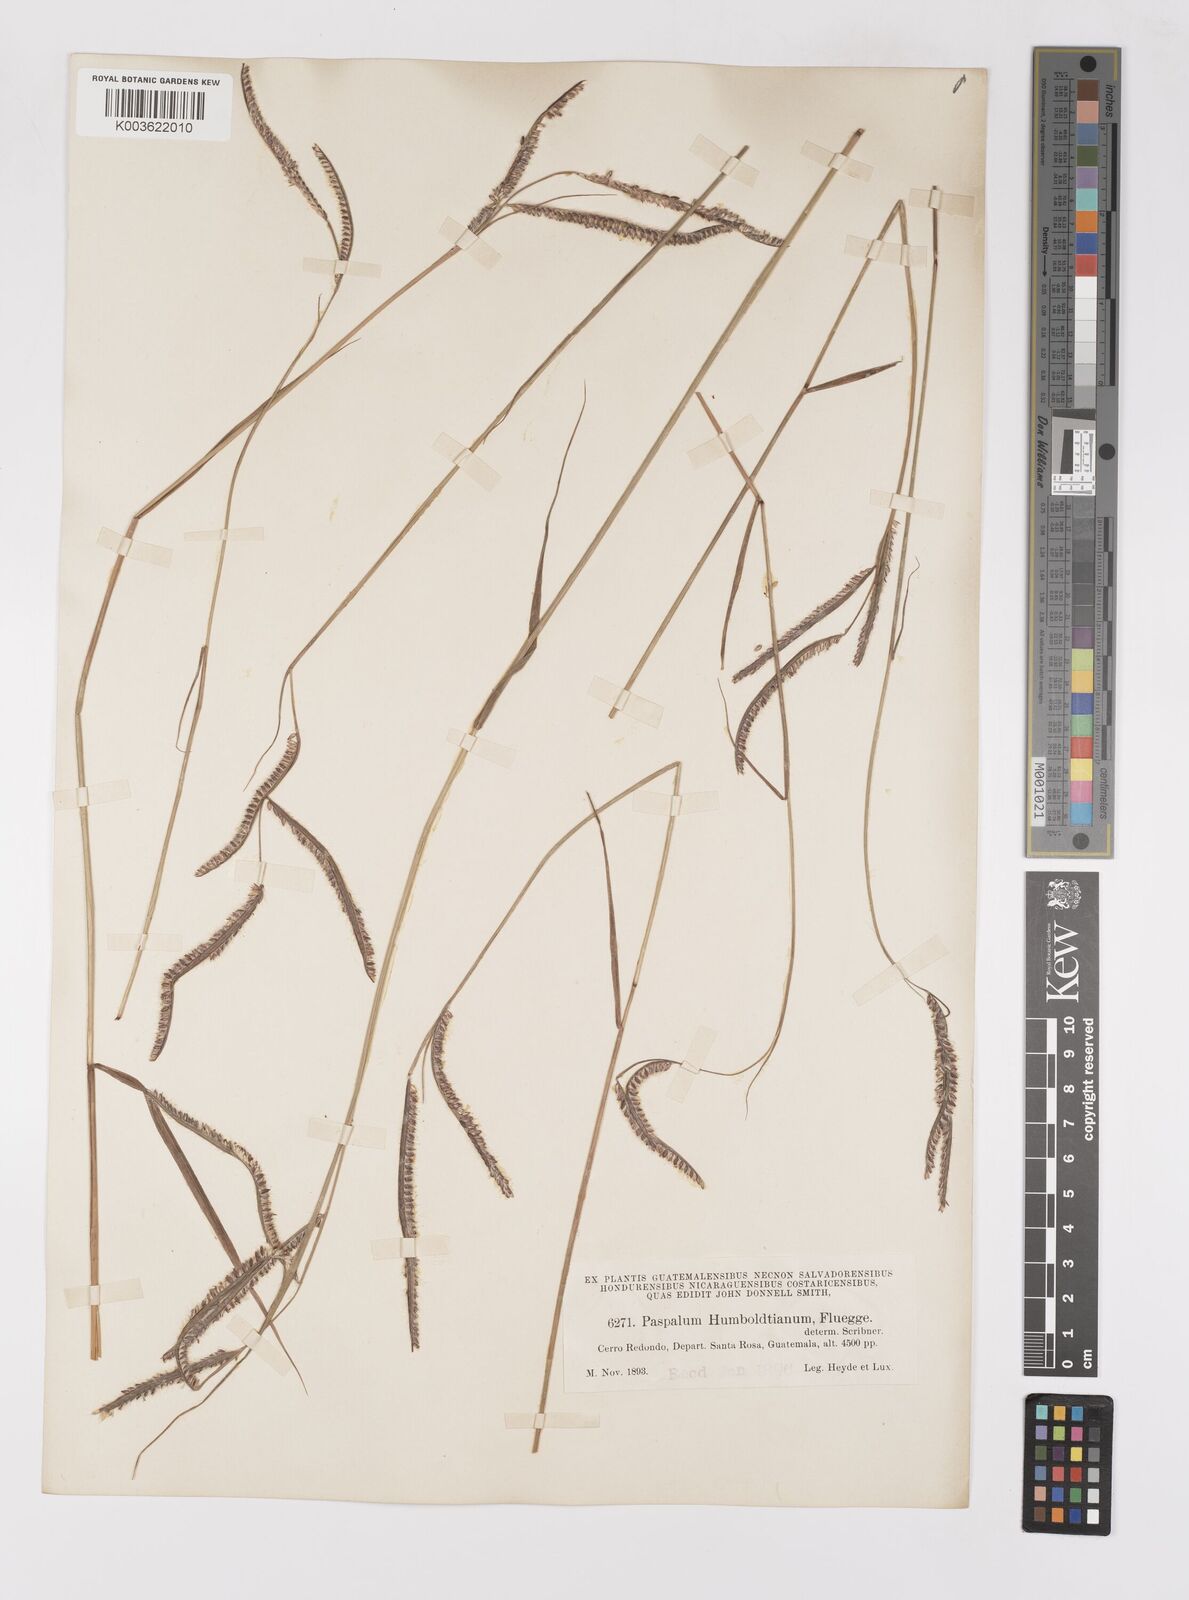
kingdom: Plantae
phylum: Tracheophyta
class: Liliopsida
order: Poales
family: Poaceae
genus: Paspalum
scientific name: Paspalum humboldtianum
